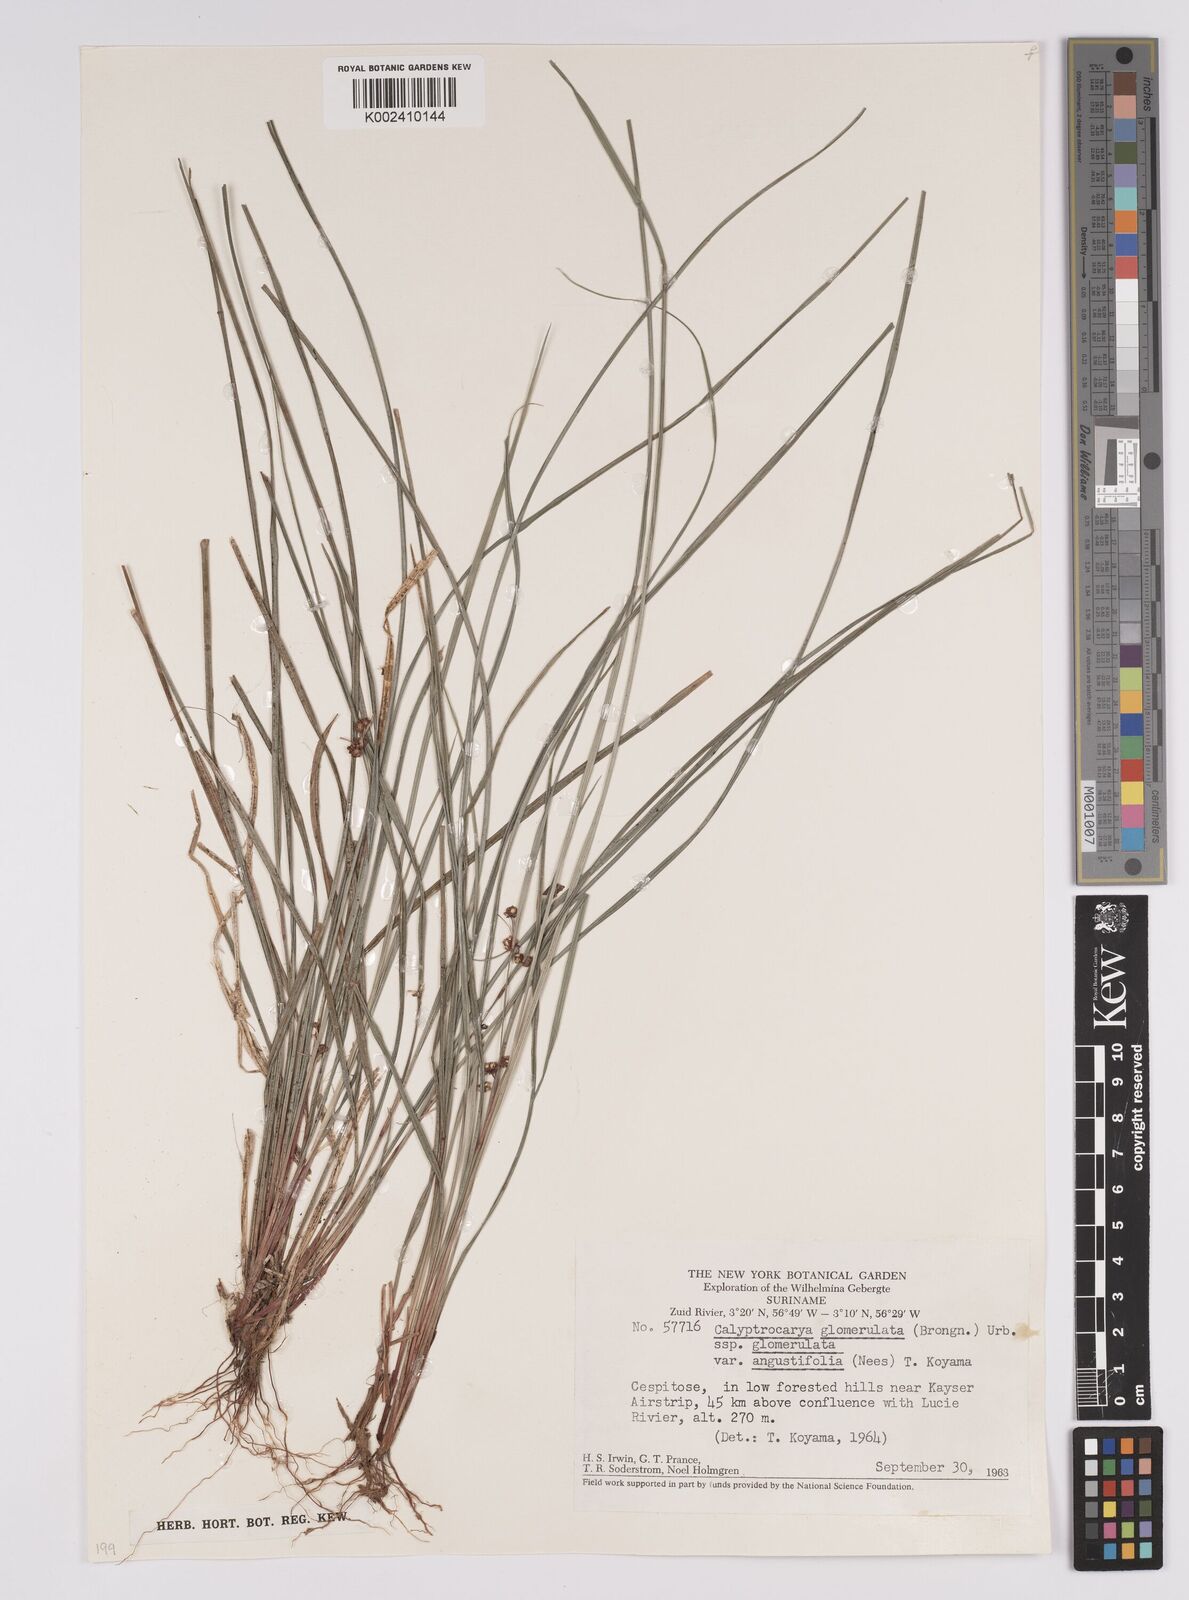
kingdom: Plantae
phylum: Tracheophyta
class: Liliopsida
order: Poales
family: Cyperaceae
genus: Calyptrocarya
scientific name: Calyptrocarya glomerulata
